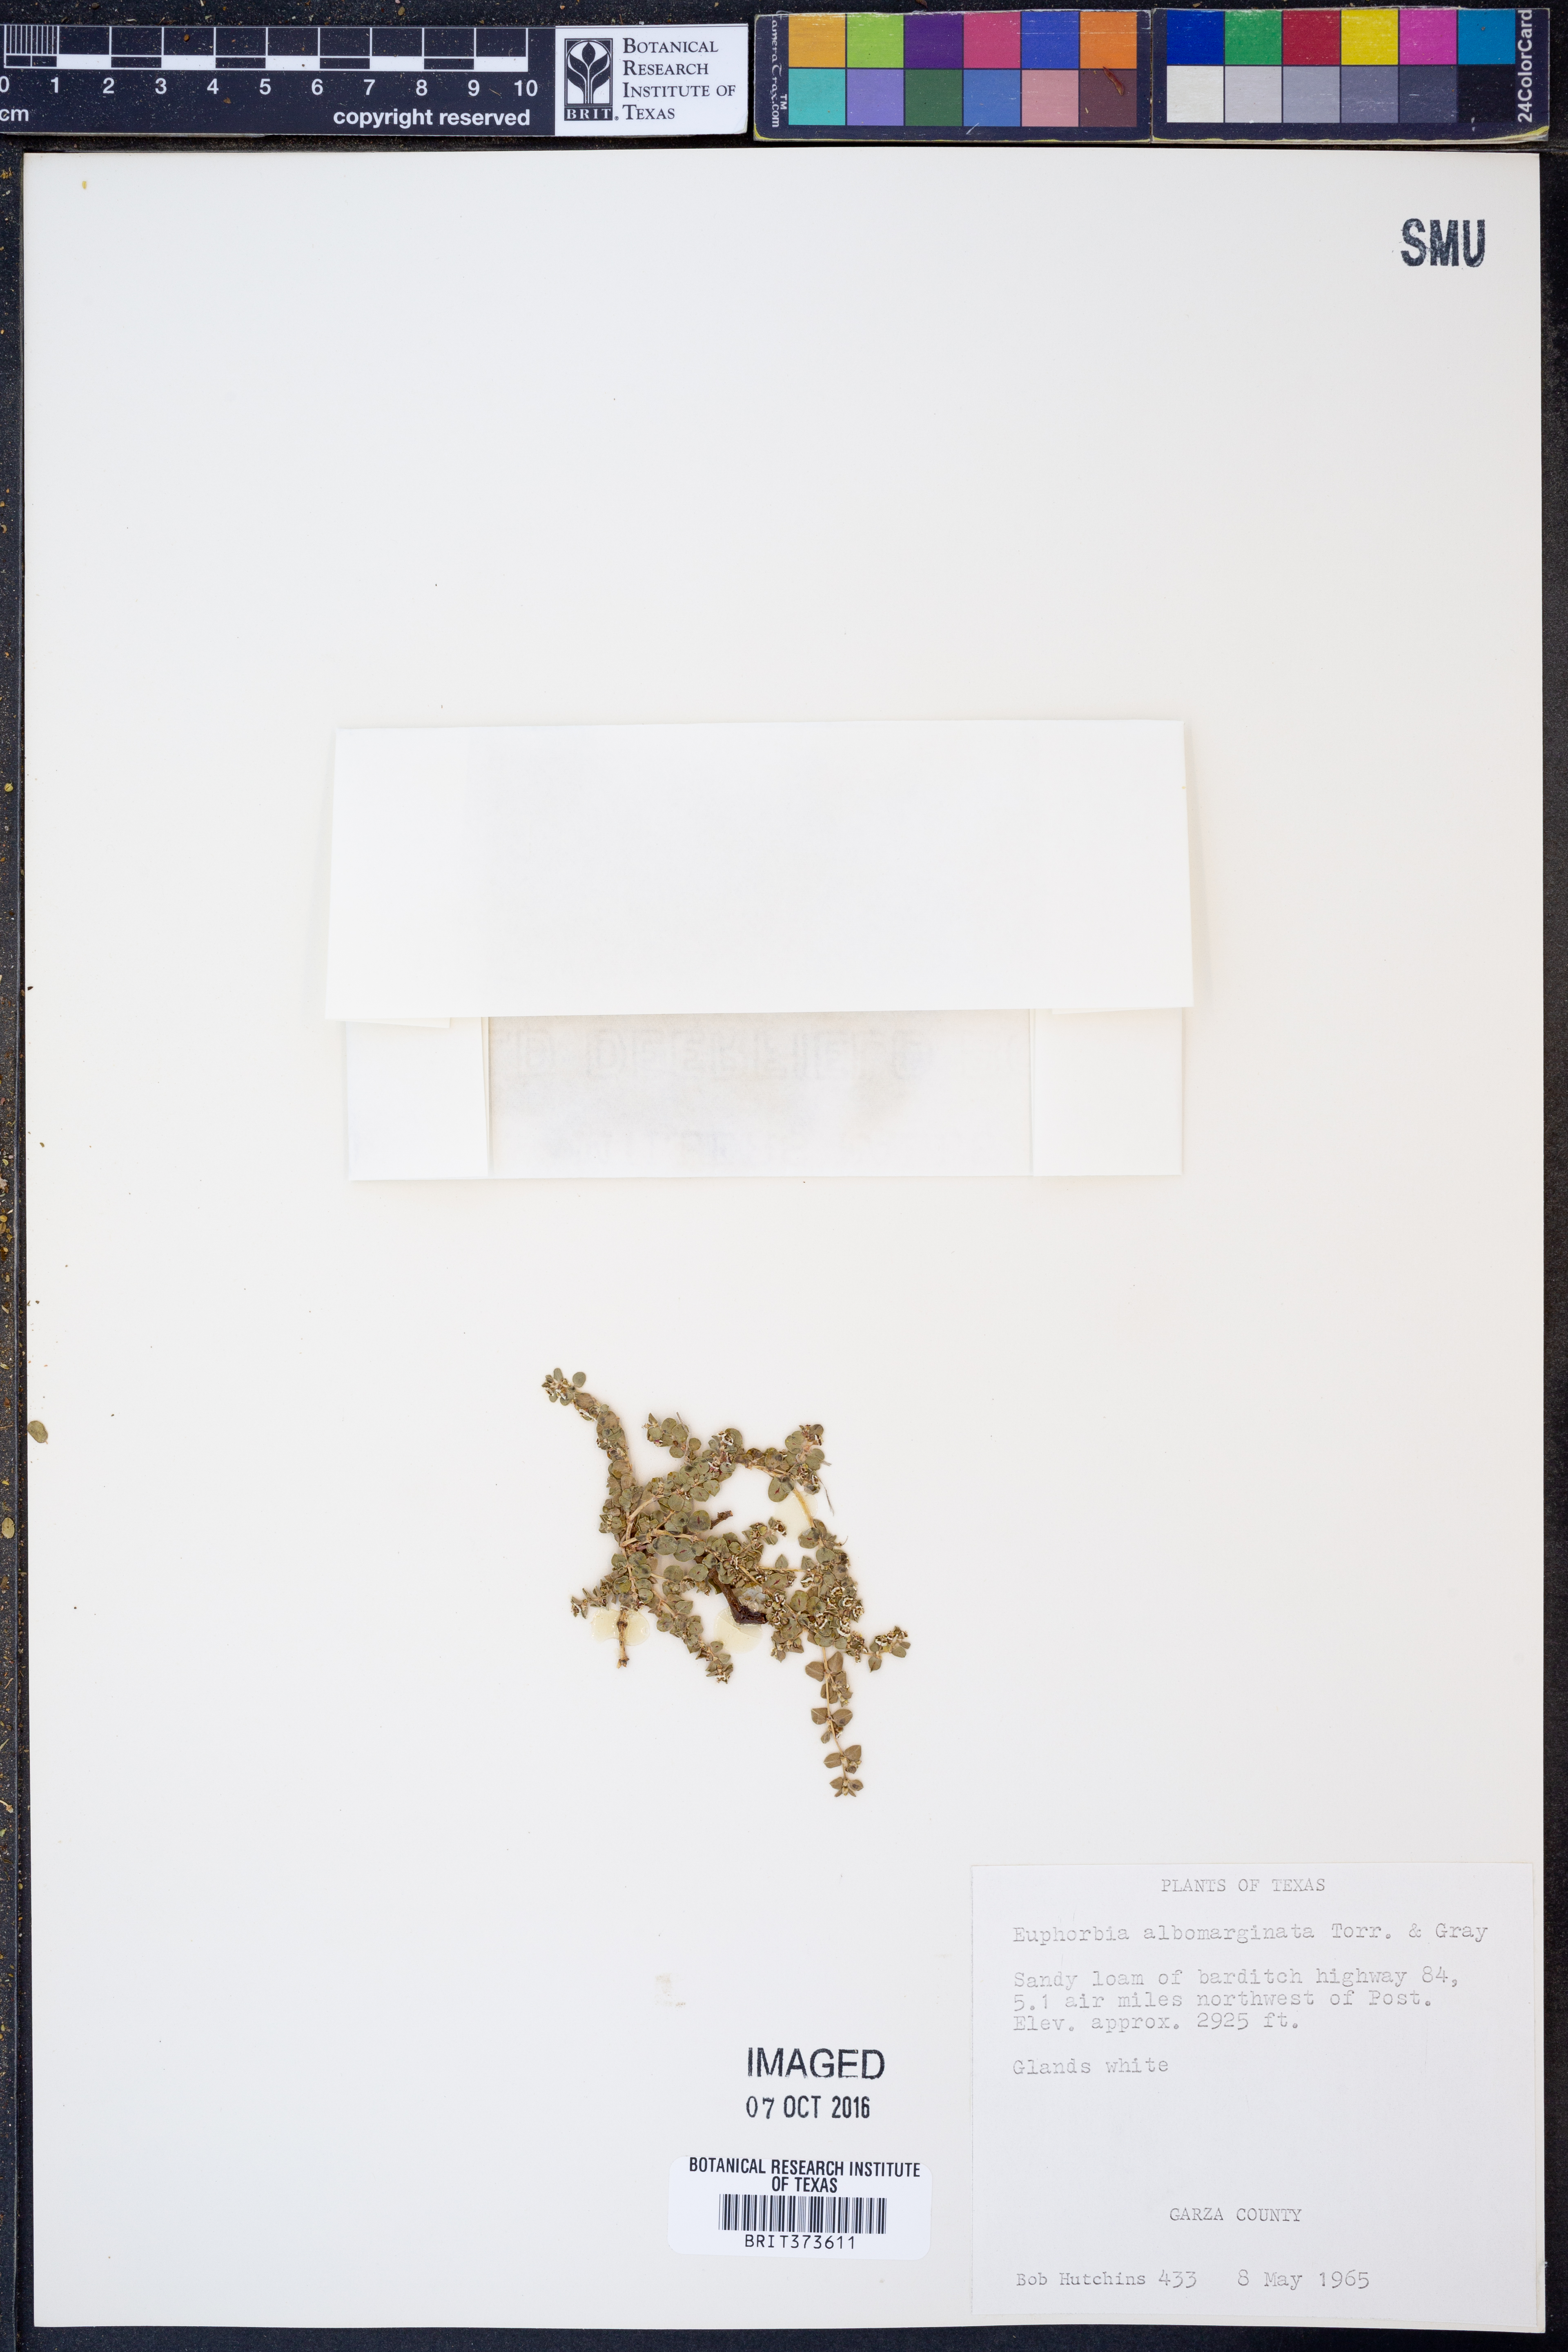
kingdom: Plantae
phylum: Tracheophyta
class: Magnoliopsida
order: Malpighiales
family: Euphorbiaceae
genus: Euphorbia
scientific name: Euphorbia albomarginata
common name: Whitemargin sandmat
